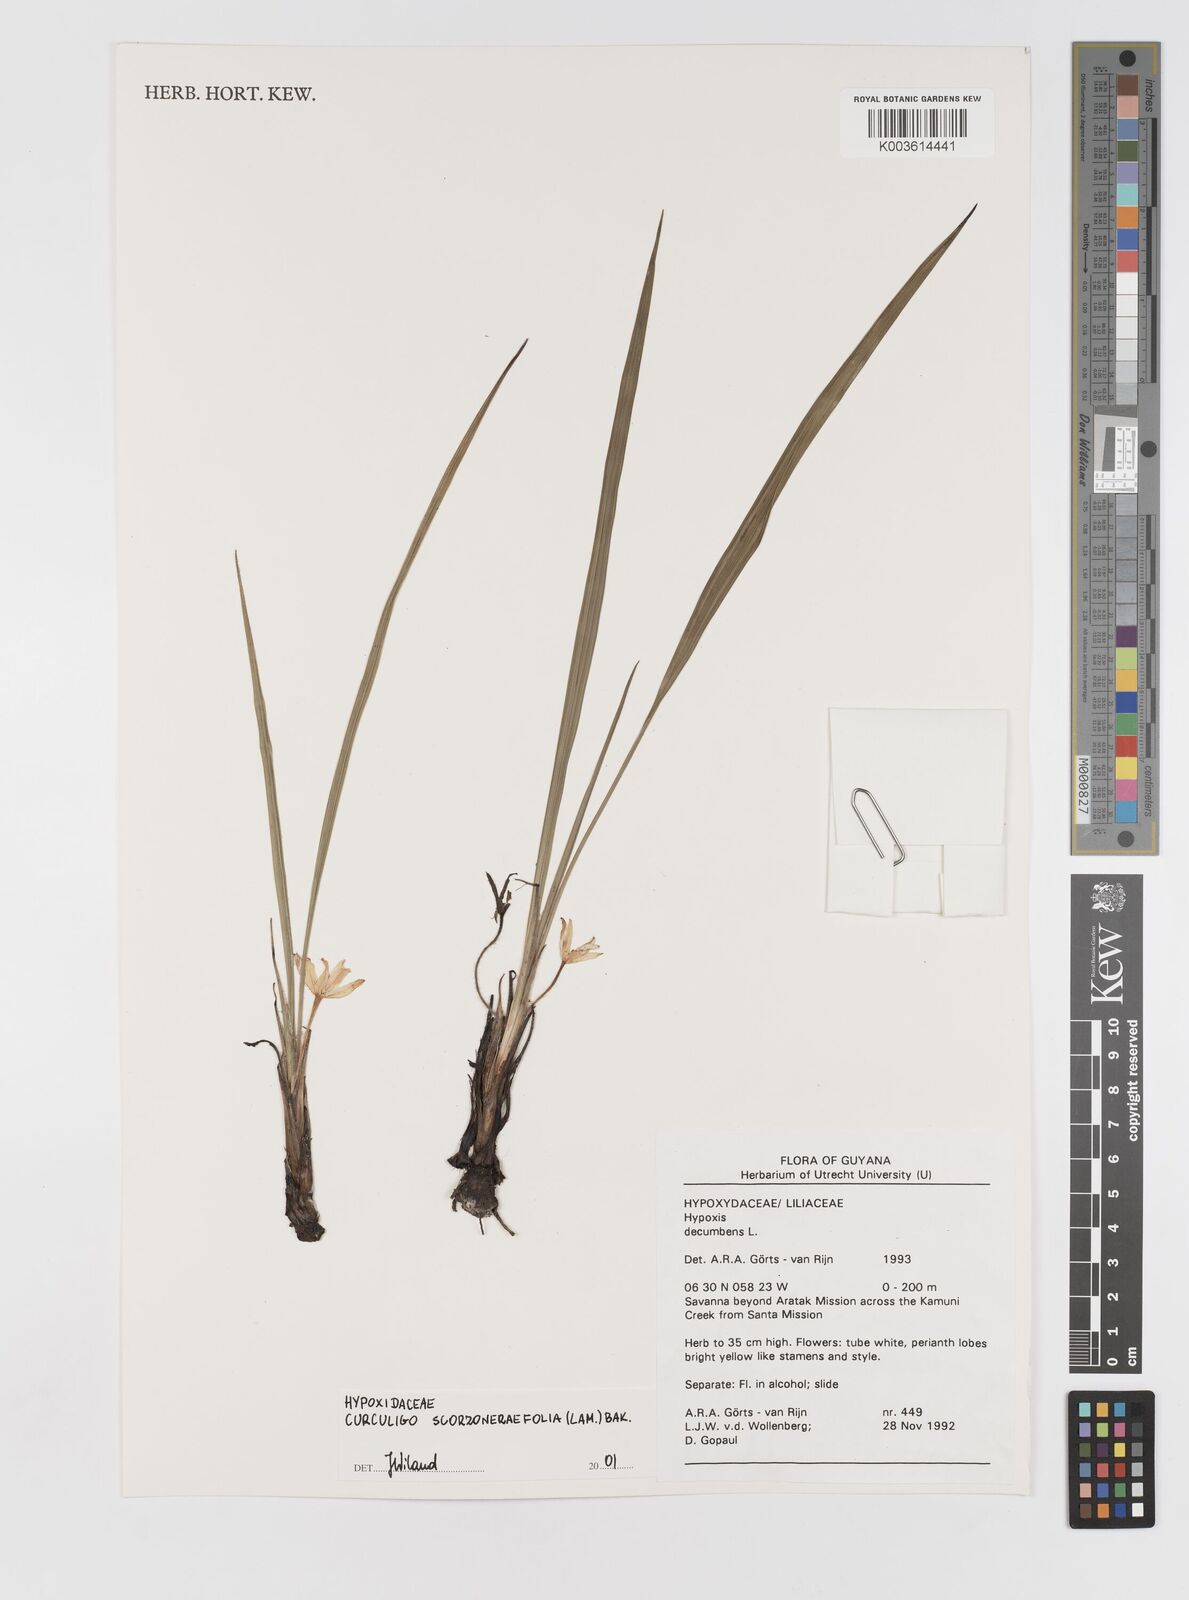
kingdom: Plantae
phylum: Tracheophyta
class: Liliopsida
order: Asparagales
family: Hypoxidaceae
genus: Curculigo
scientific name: Curculigo scorzonerifolia
